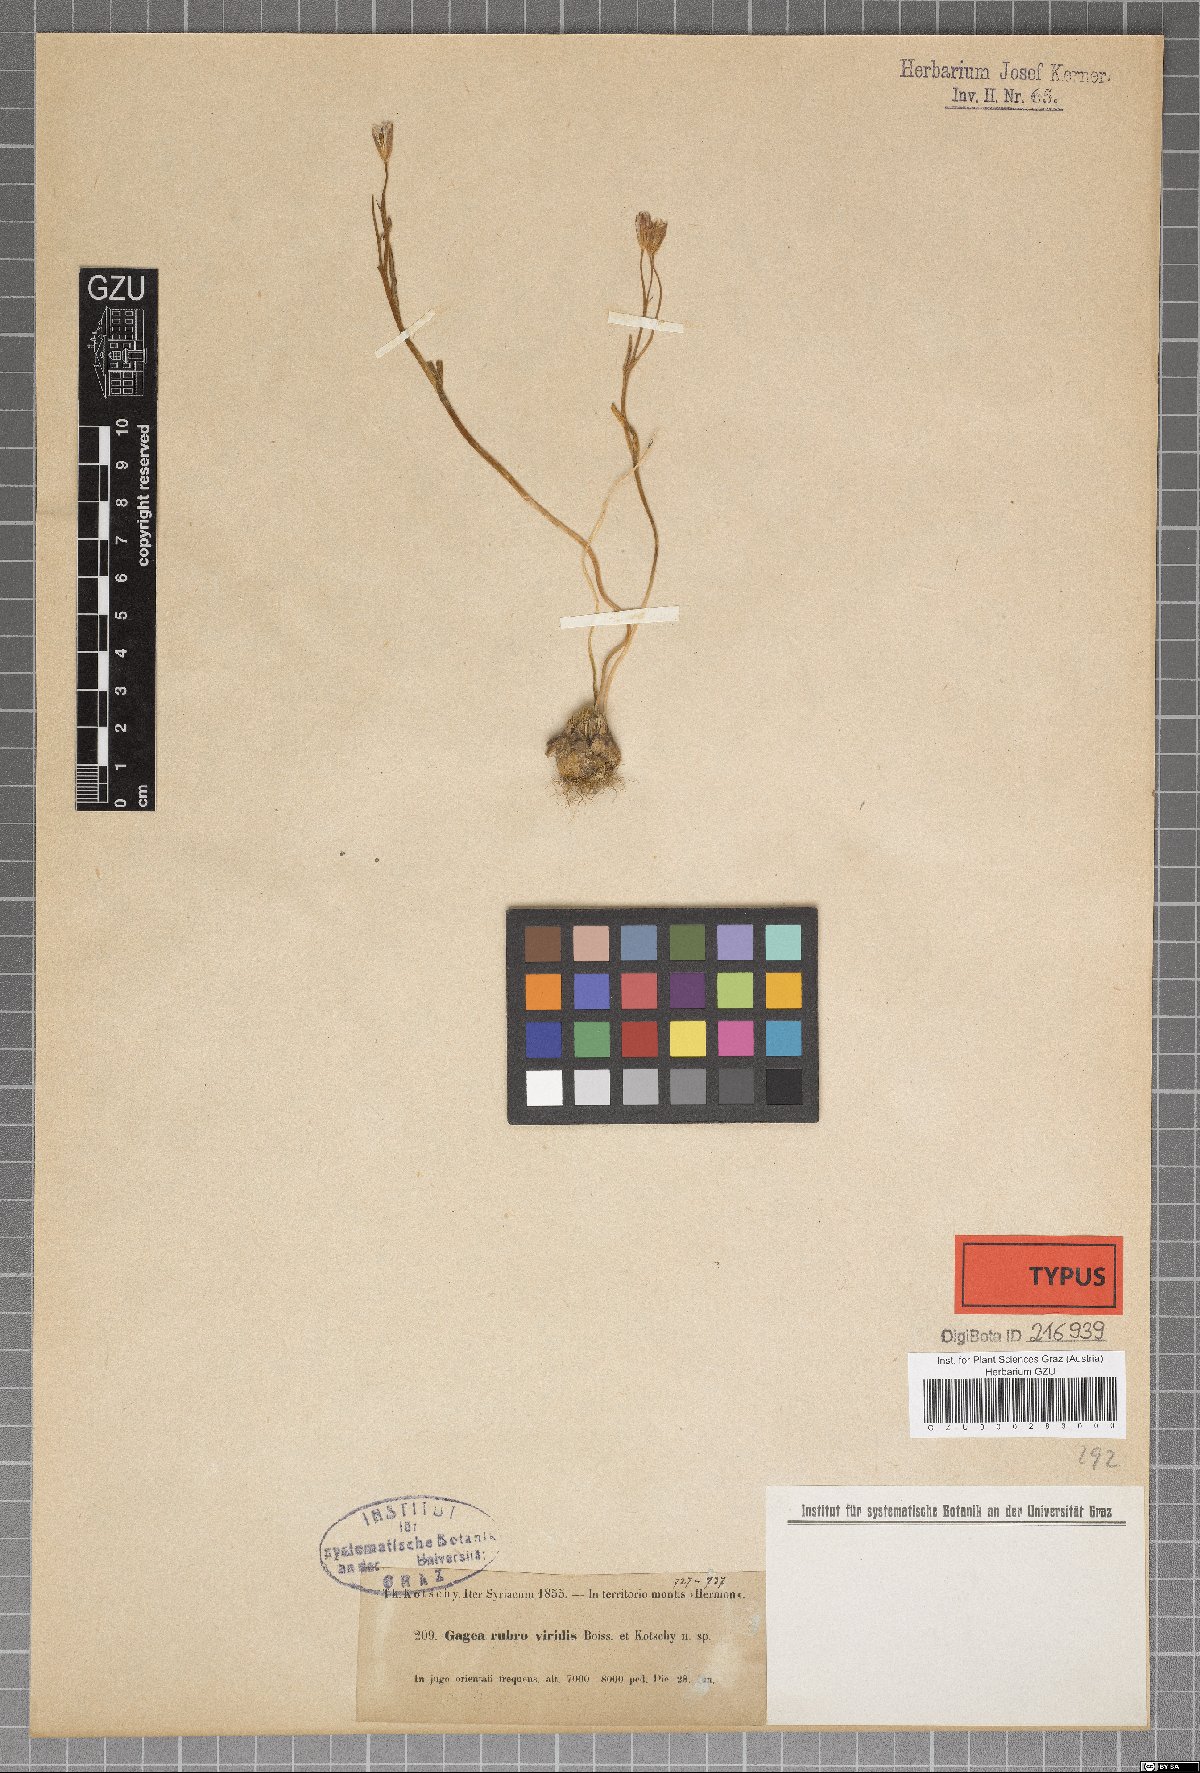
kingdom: Plantae
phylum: Tracheophyta
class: Liliopsida
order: Liliales
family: Liliaceae
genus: Gagea
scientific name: Gagea libanotica
